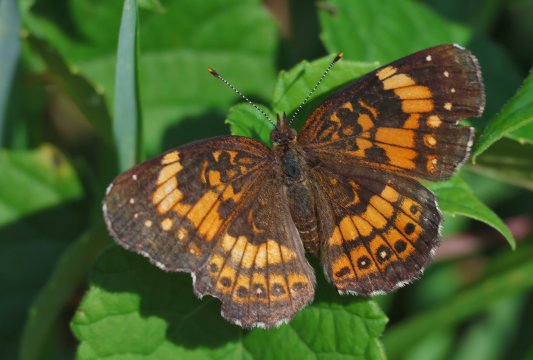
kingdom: Animalia
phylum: Arthropoda
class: Insecta
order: Lepidoptera
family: Nymphalidae
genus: Chlosyne
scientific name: Chlosyne nycteis
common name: Silvery Checkerspot
